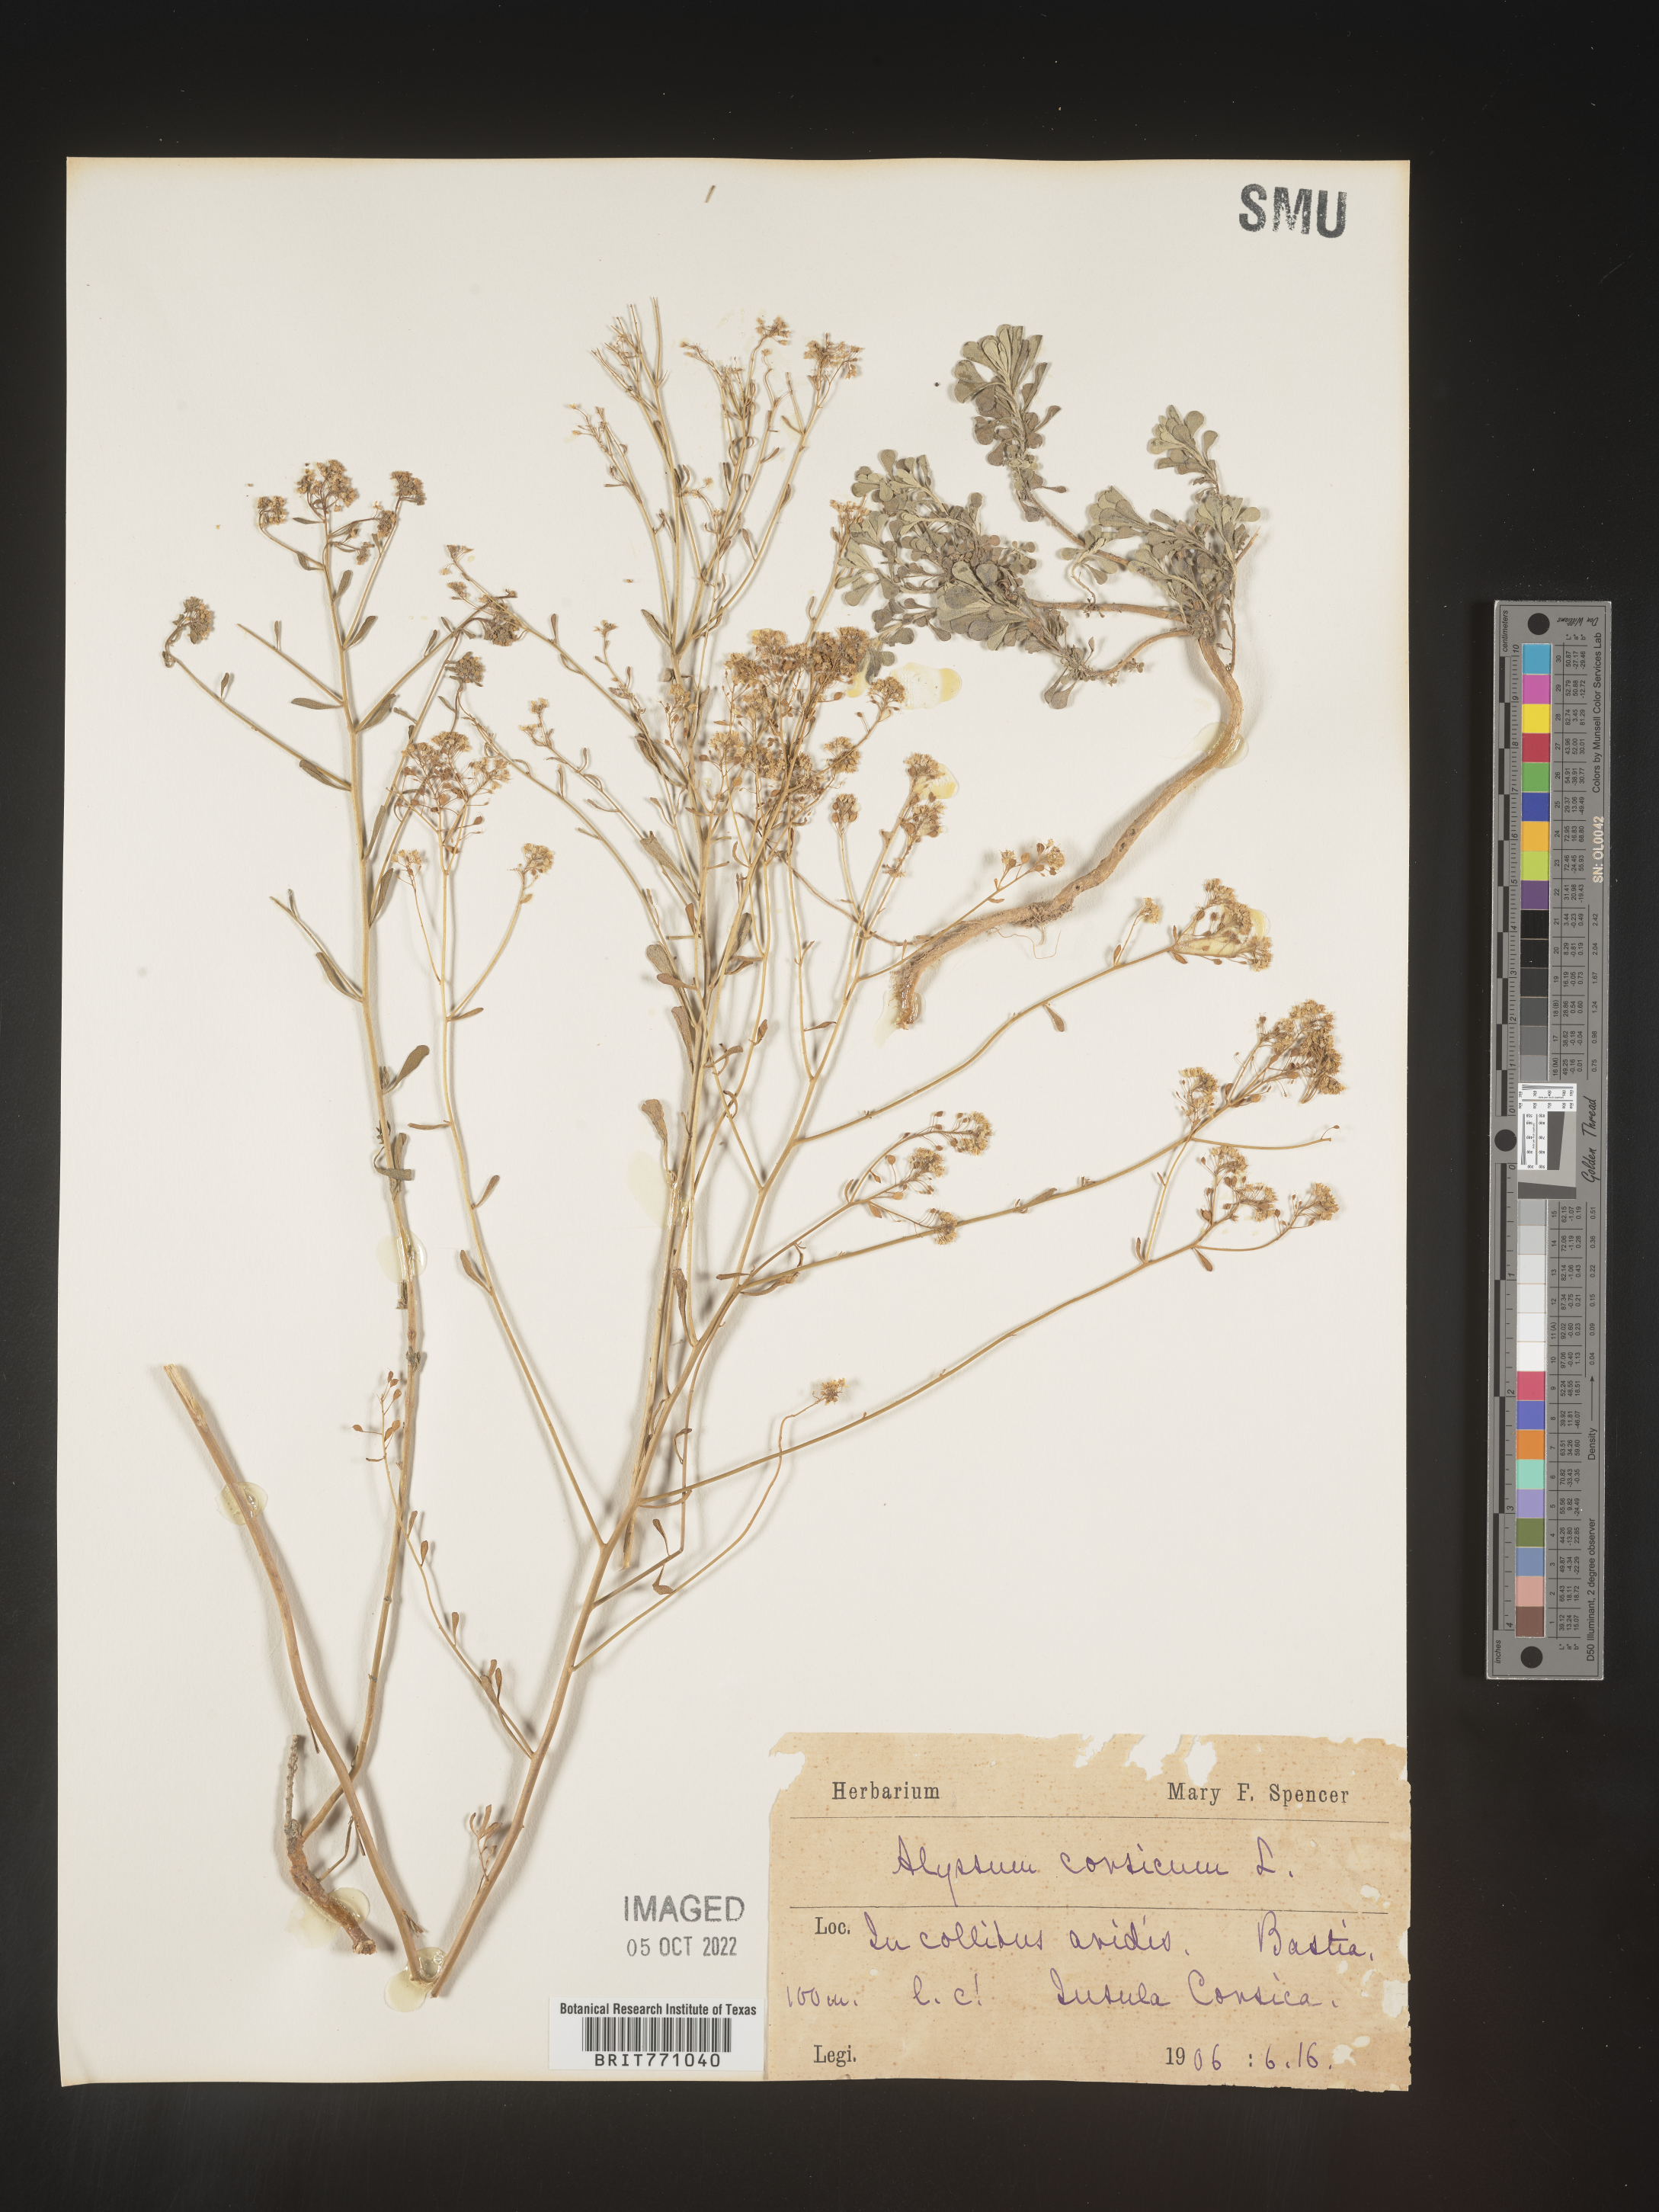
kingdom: Plantae
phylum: Tracheophyta
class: Magnoliopsida
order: Brassicales
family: Brassicaceae
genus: Alyssum
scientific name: Alyssum
